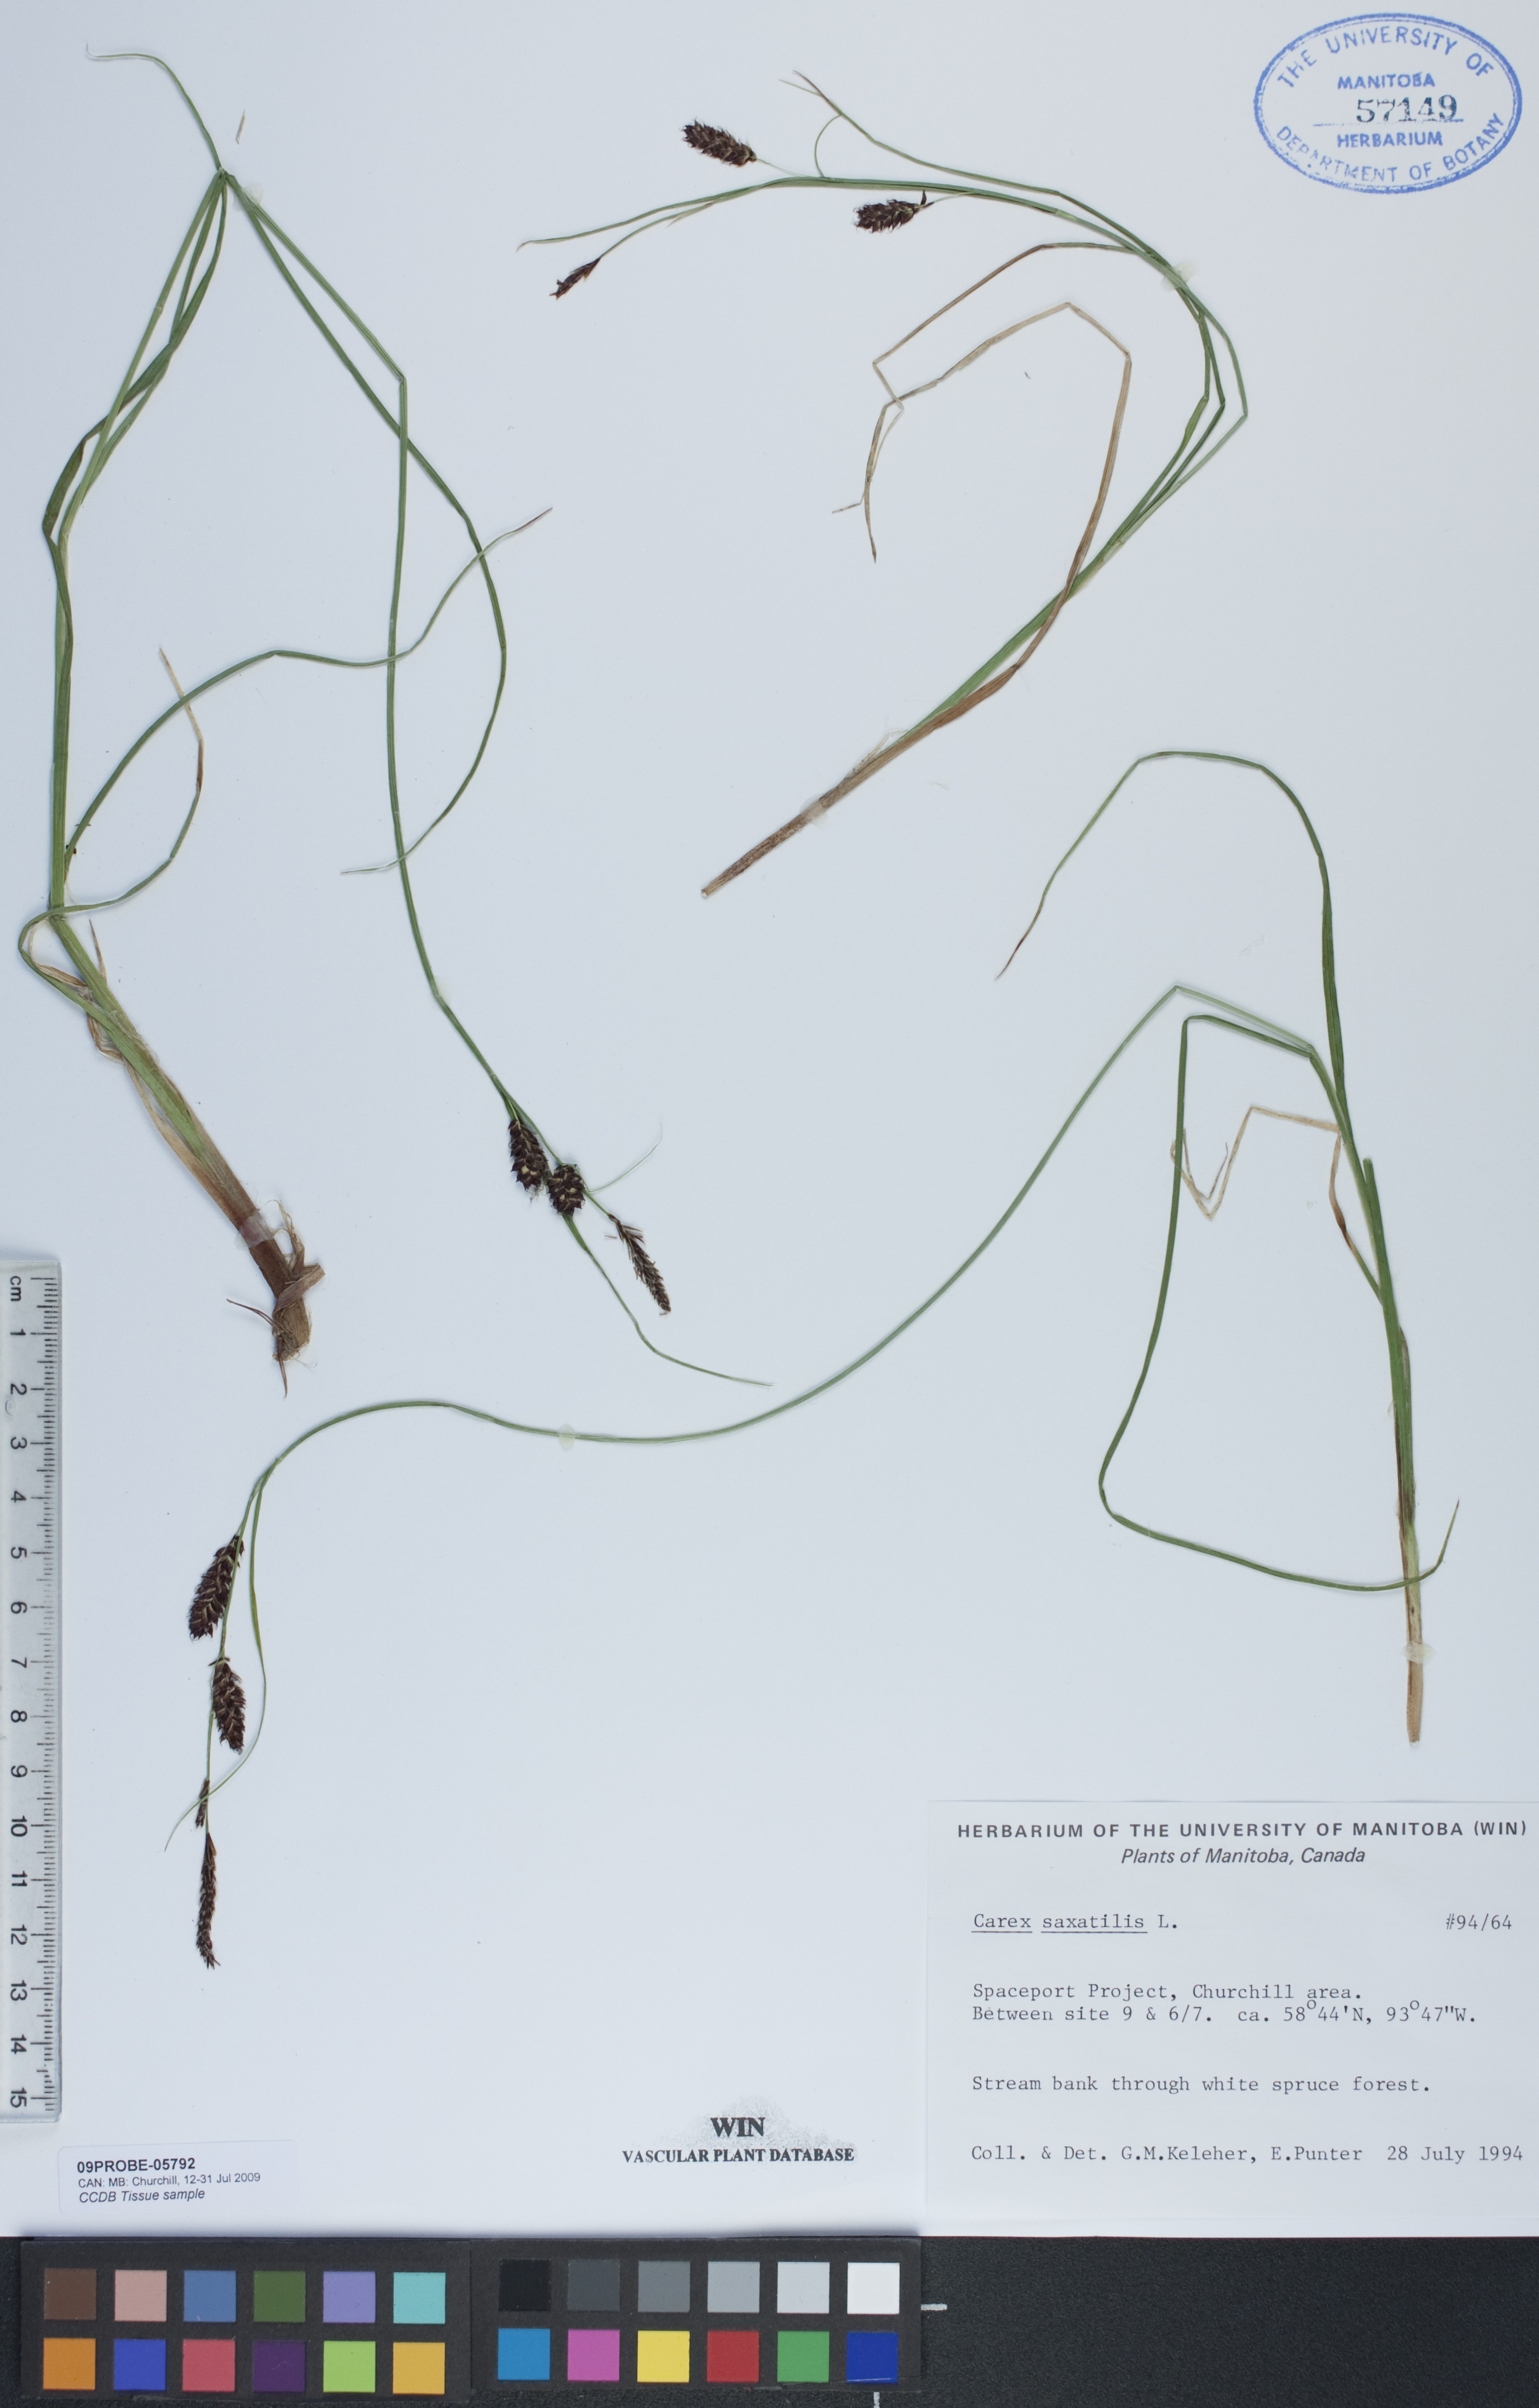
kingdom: Plantae
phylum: Tracheophyta
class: Liliopsida
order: Poales
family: Cyperaceae
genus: Carex
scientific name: Carex saxatilis
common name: Russet sedge
